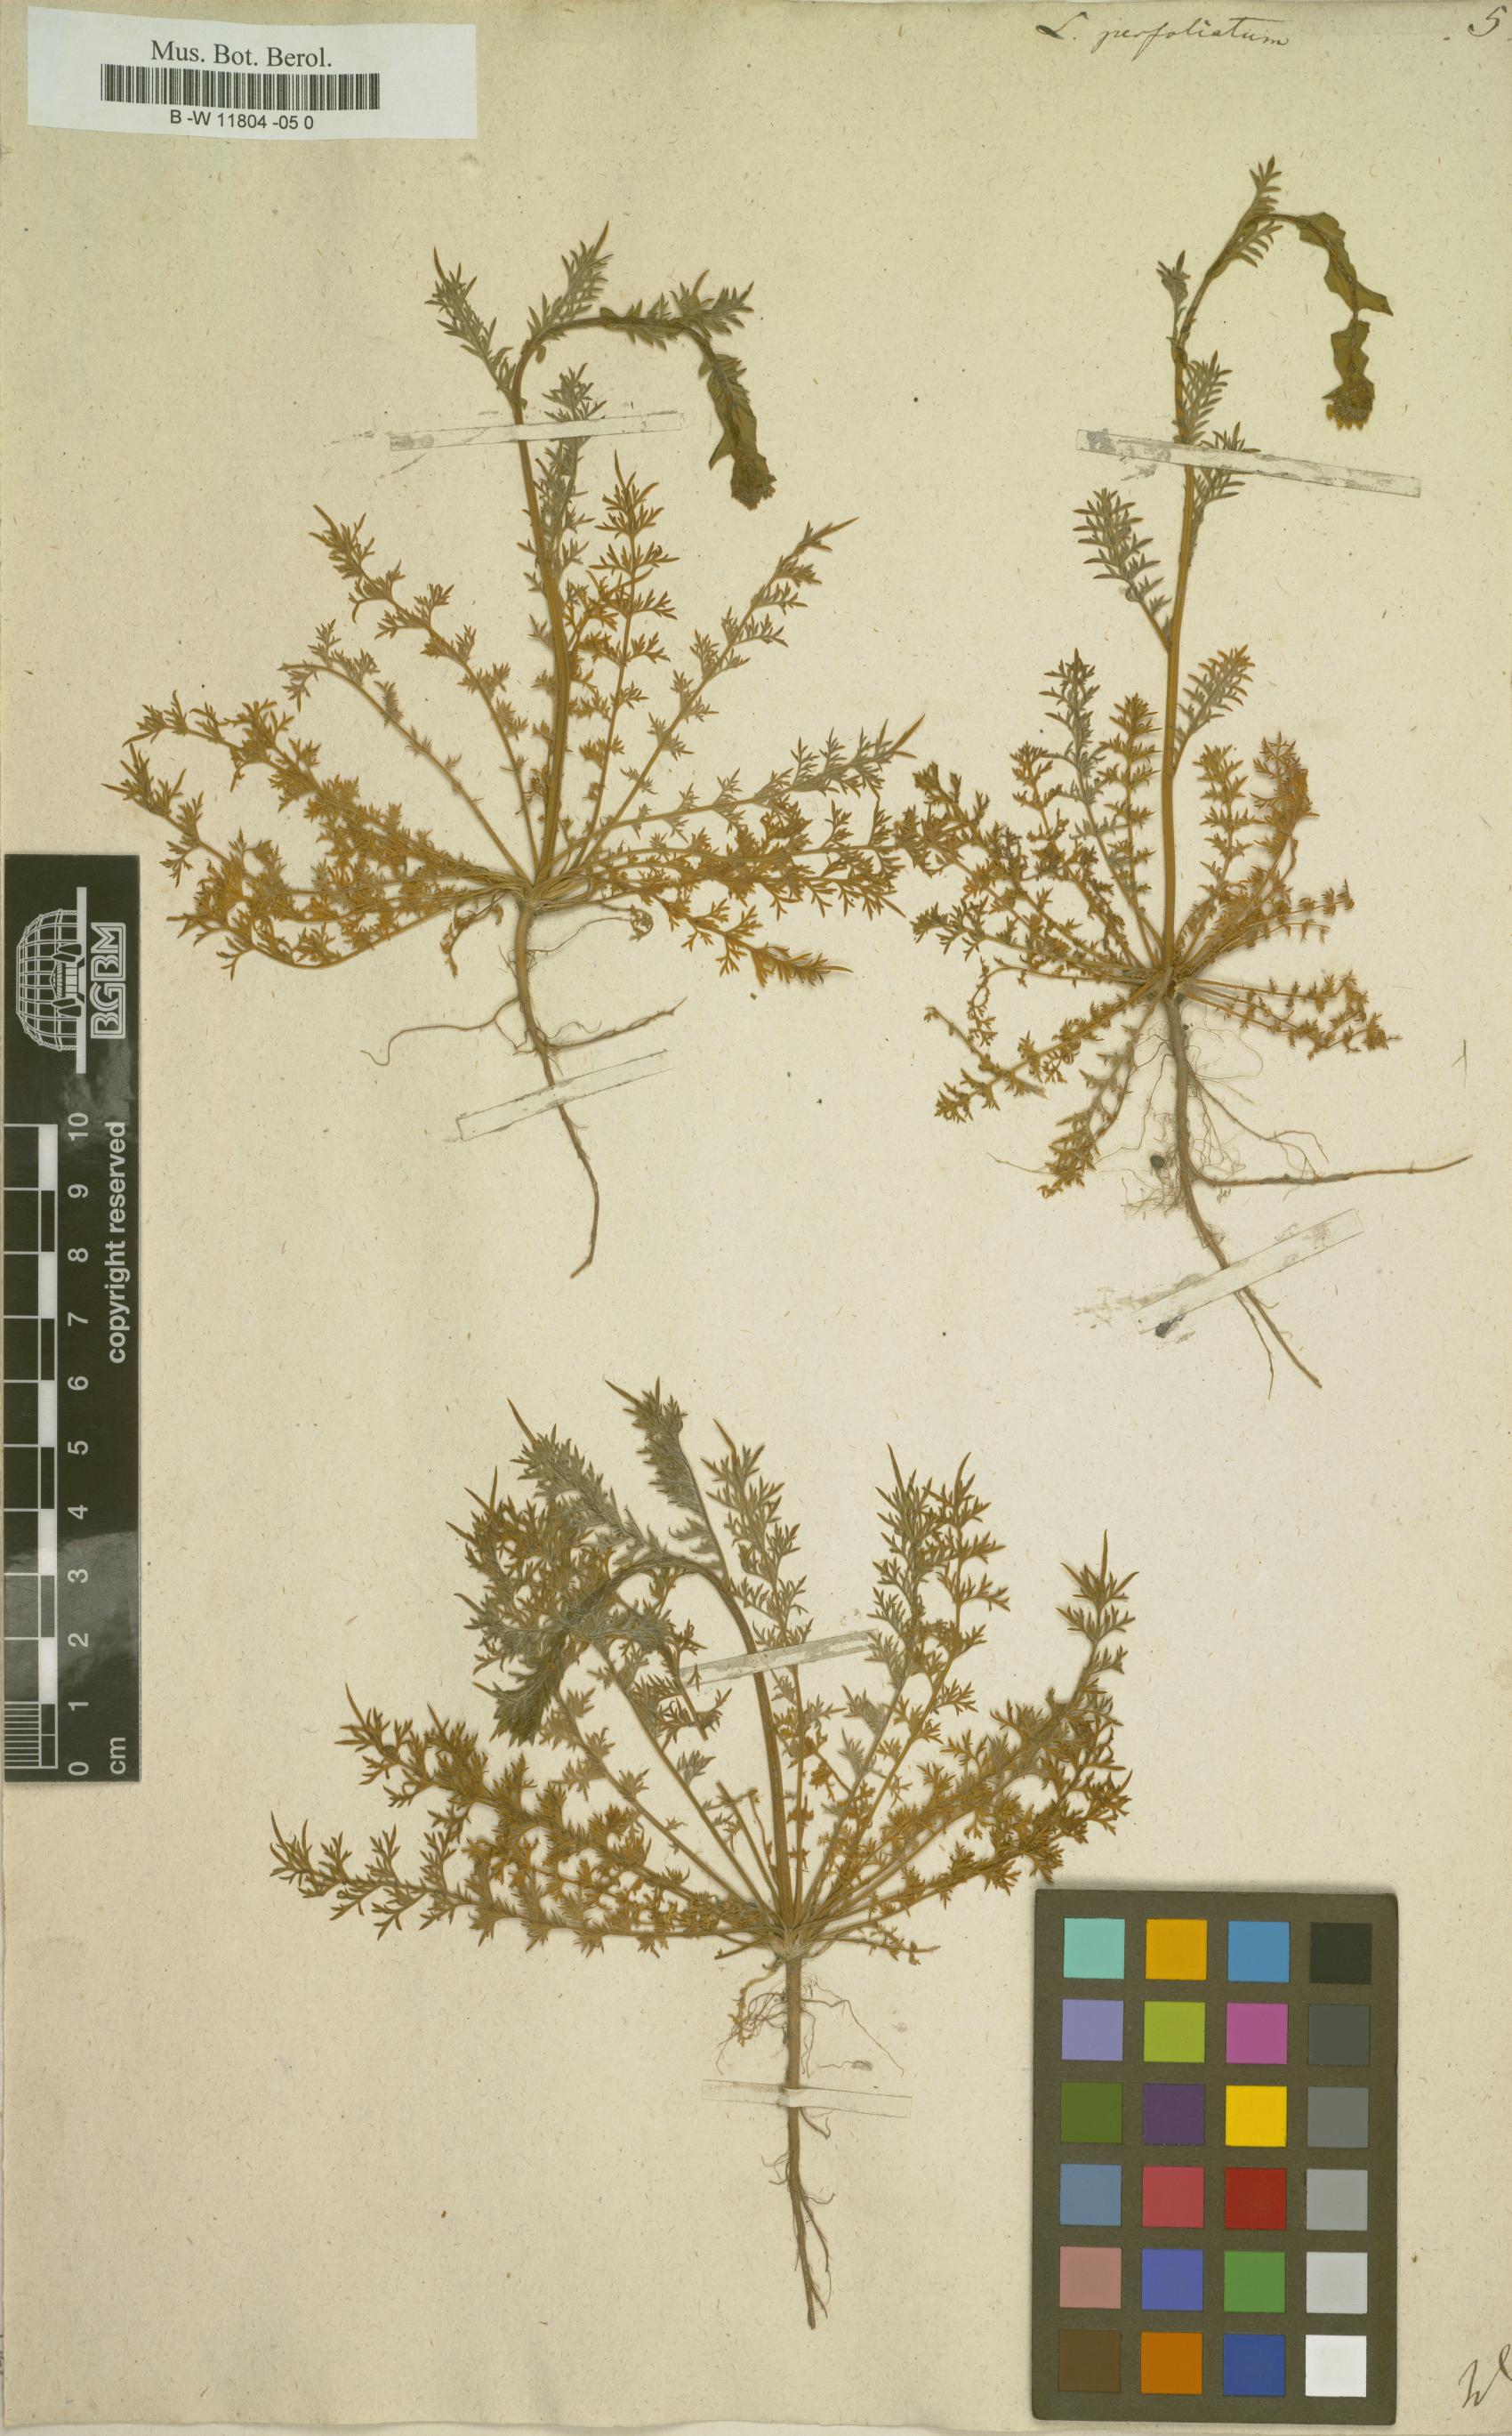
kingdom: Plantae
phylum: Tracheophyta
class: Magnoliopsida
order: Brassicales
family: Brassicaceae
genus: Lepidium
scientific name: Lepidium perfoliatum
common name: Perfoliate pepperwort
